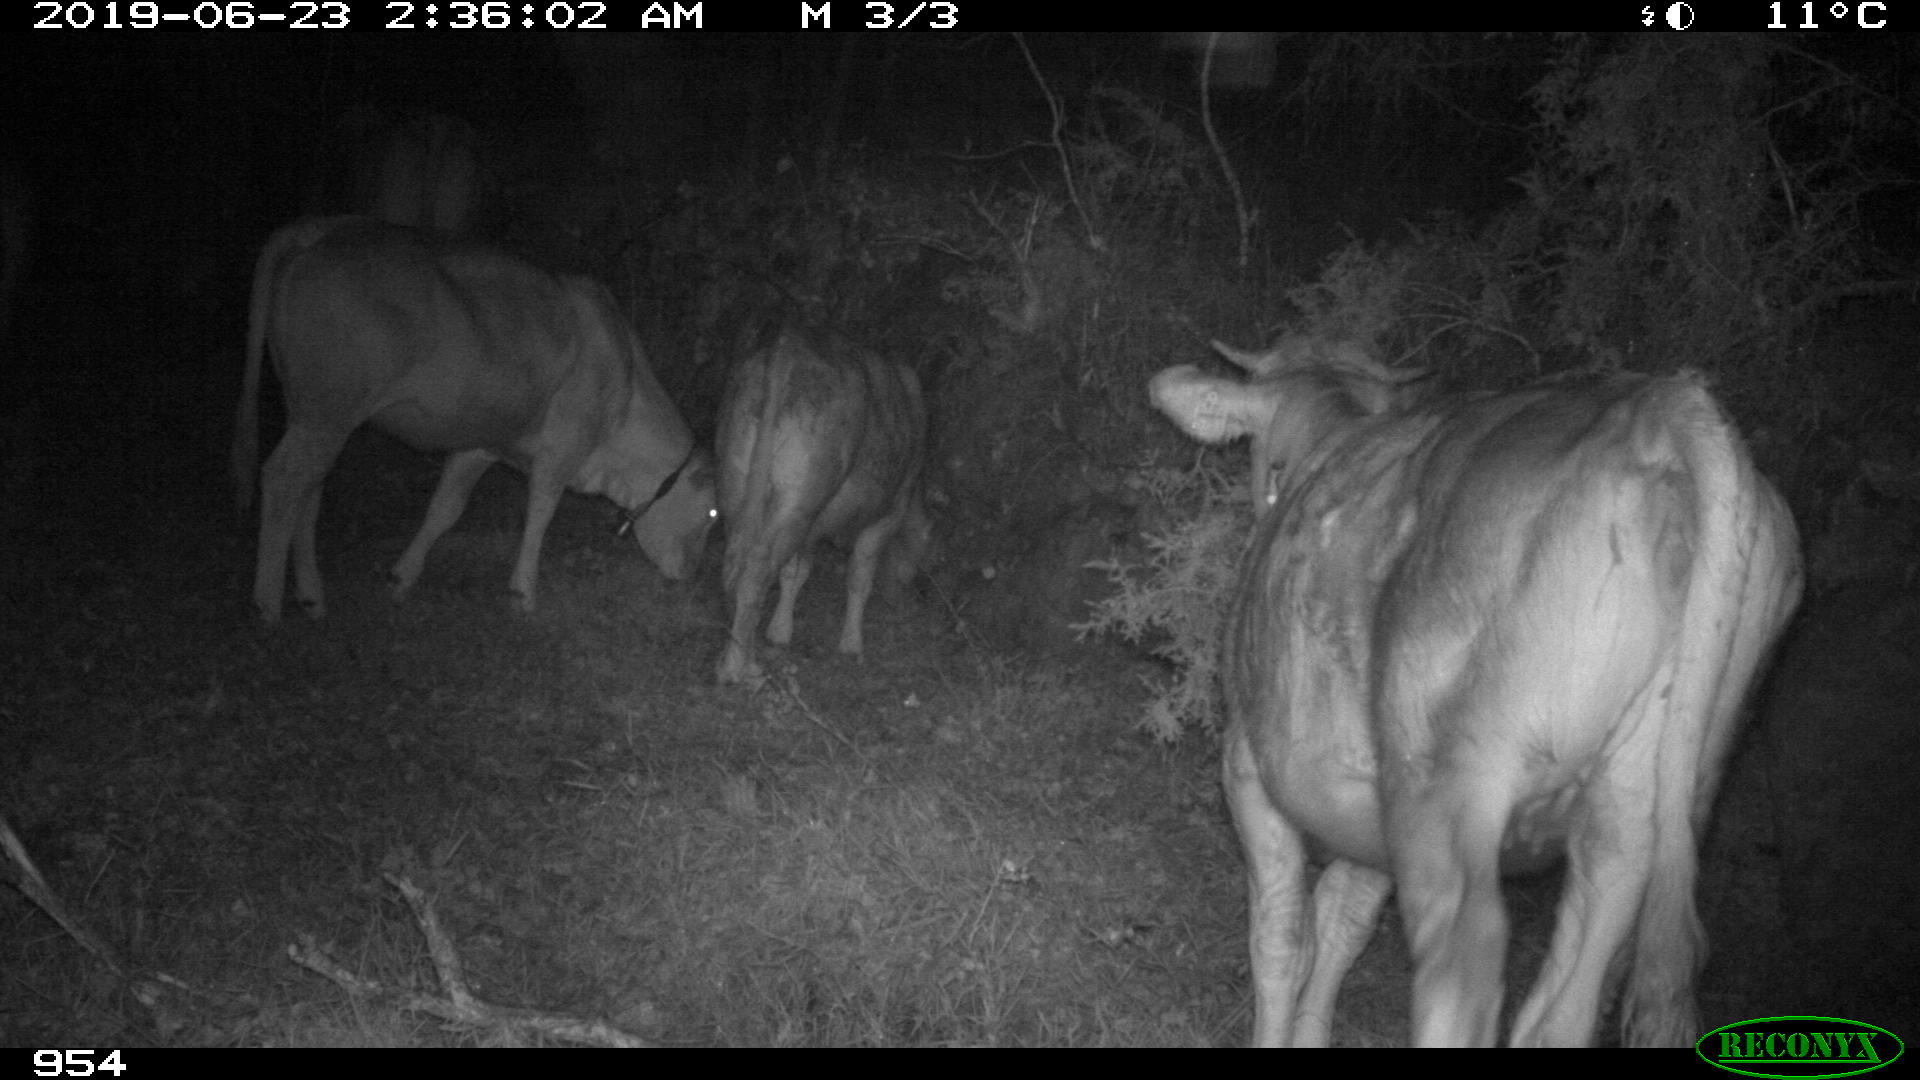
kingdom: Animalia
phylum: Chordata
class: Mammalia
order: Artiodactyla
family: Bovidae
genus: Bos
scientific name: Bos taurus
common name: Domesticated cattle
